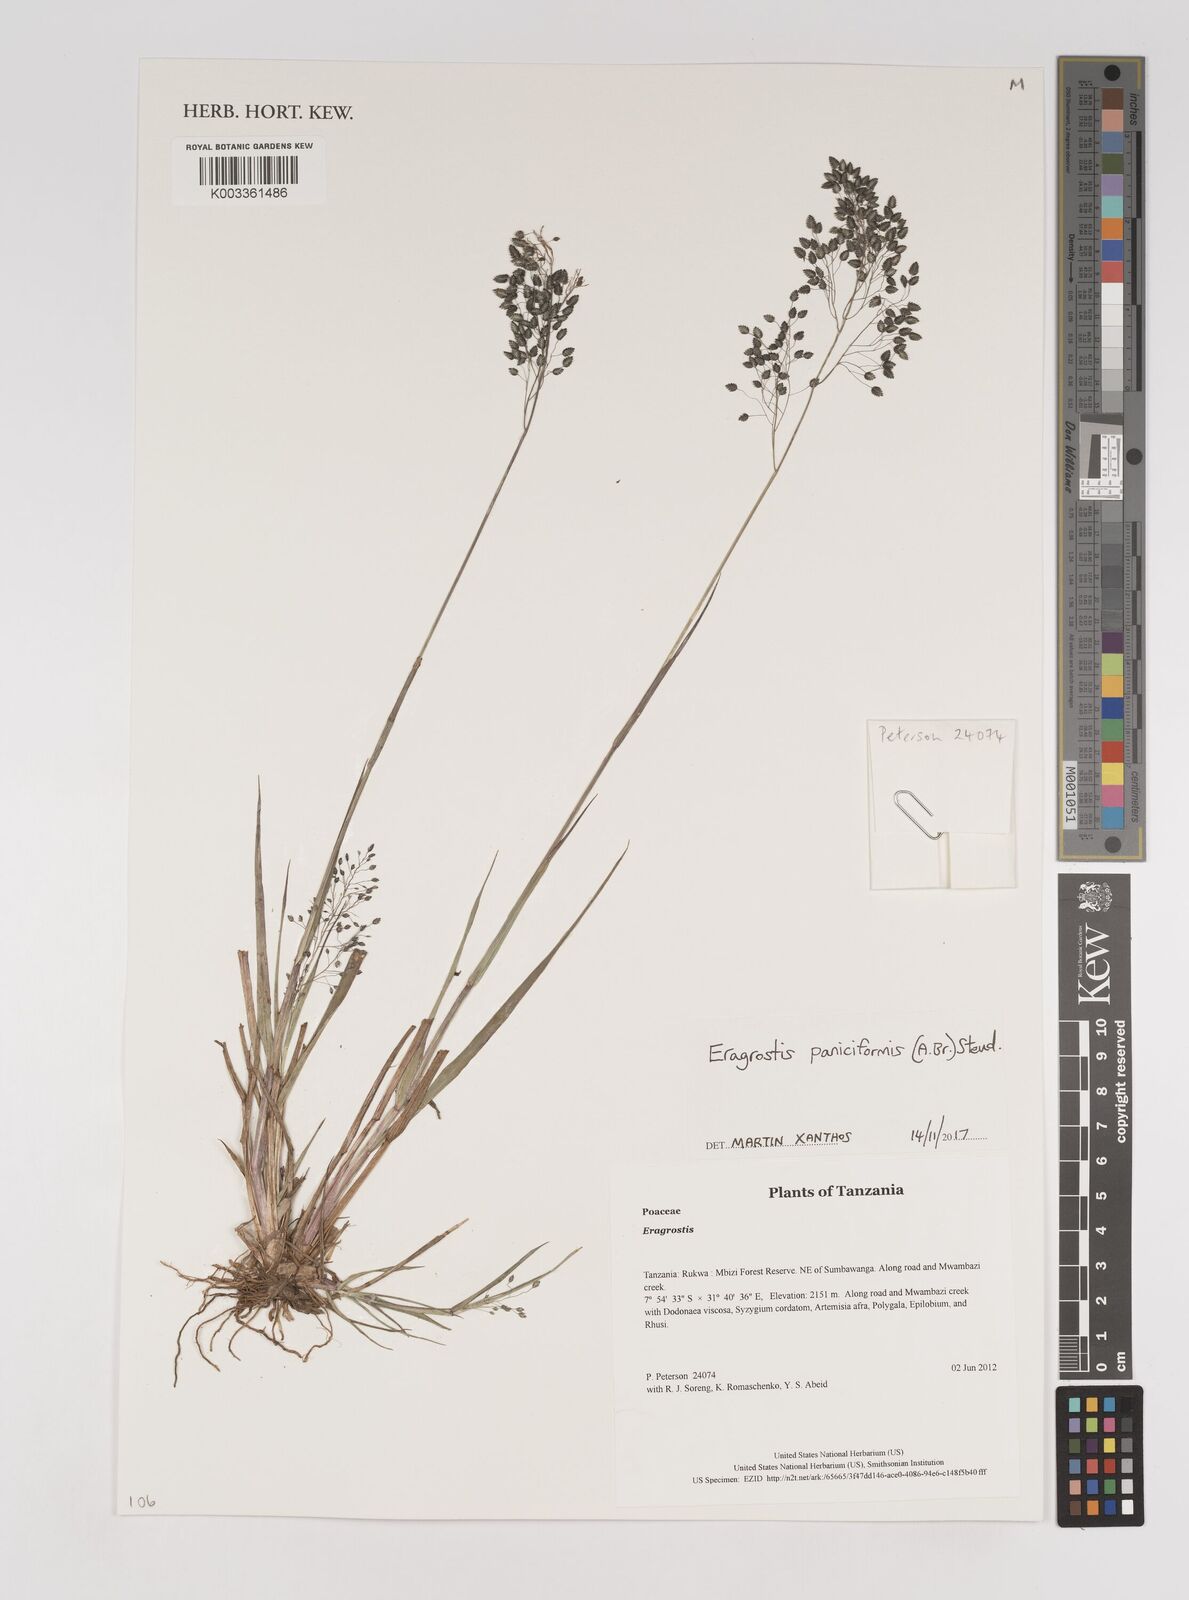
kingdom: Plantae
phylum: Tracheophyta
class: Liliopsida
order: Poales
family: Poaceae
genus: Eragrostis
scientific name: Eragrostis paniciformis
